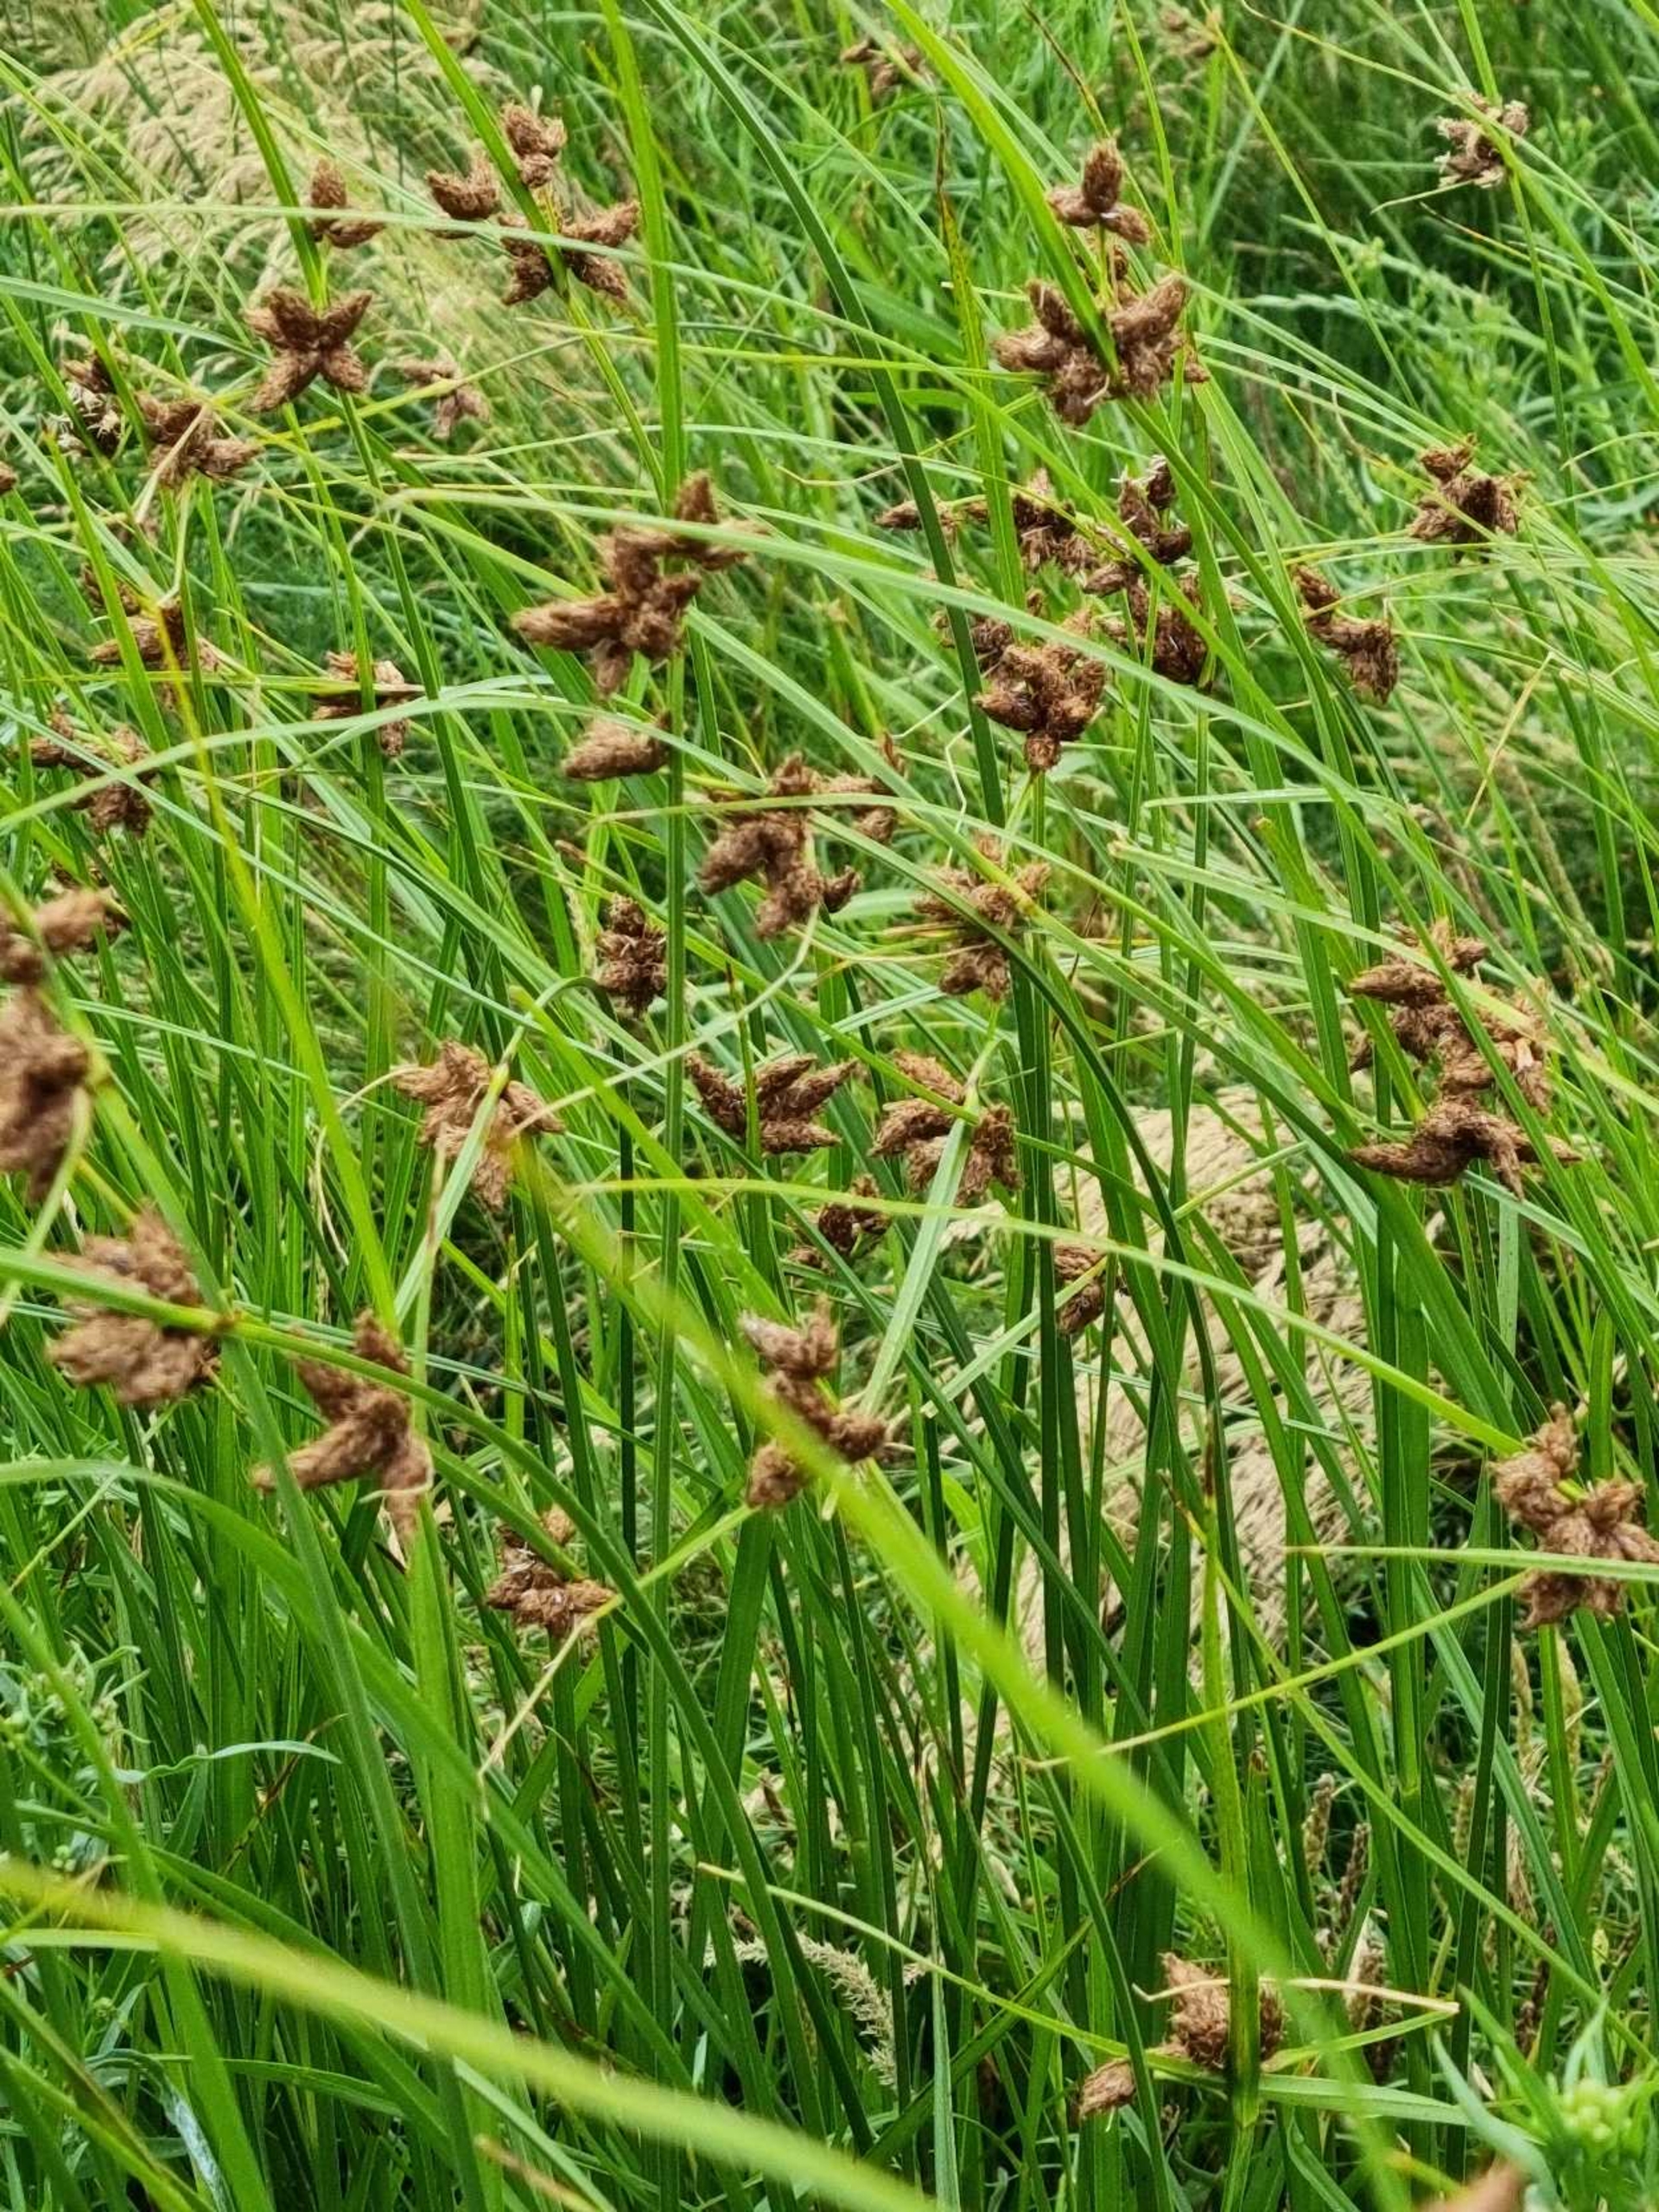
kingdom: Plantae
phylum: Tracheophyta
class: Liliopsida
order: Poales
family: Cyperaceae
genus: Bolboschoenus
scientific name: Bolboschoenus maritimus
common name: Strand-kogleaks
